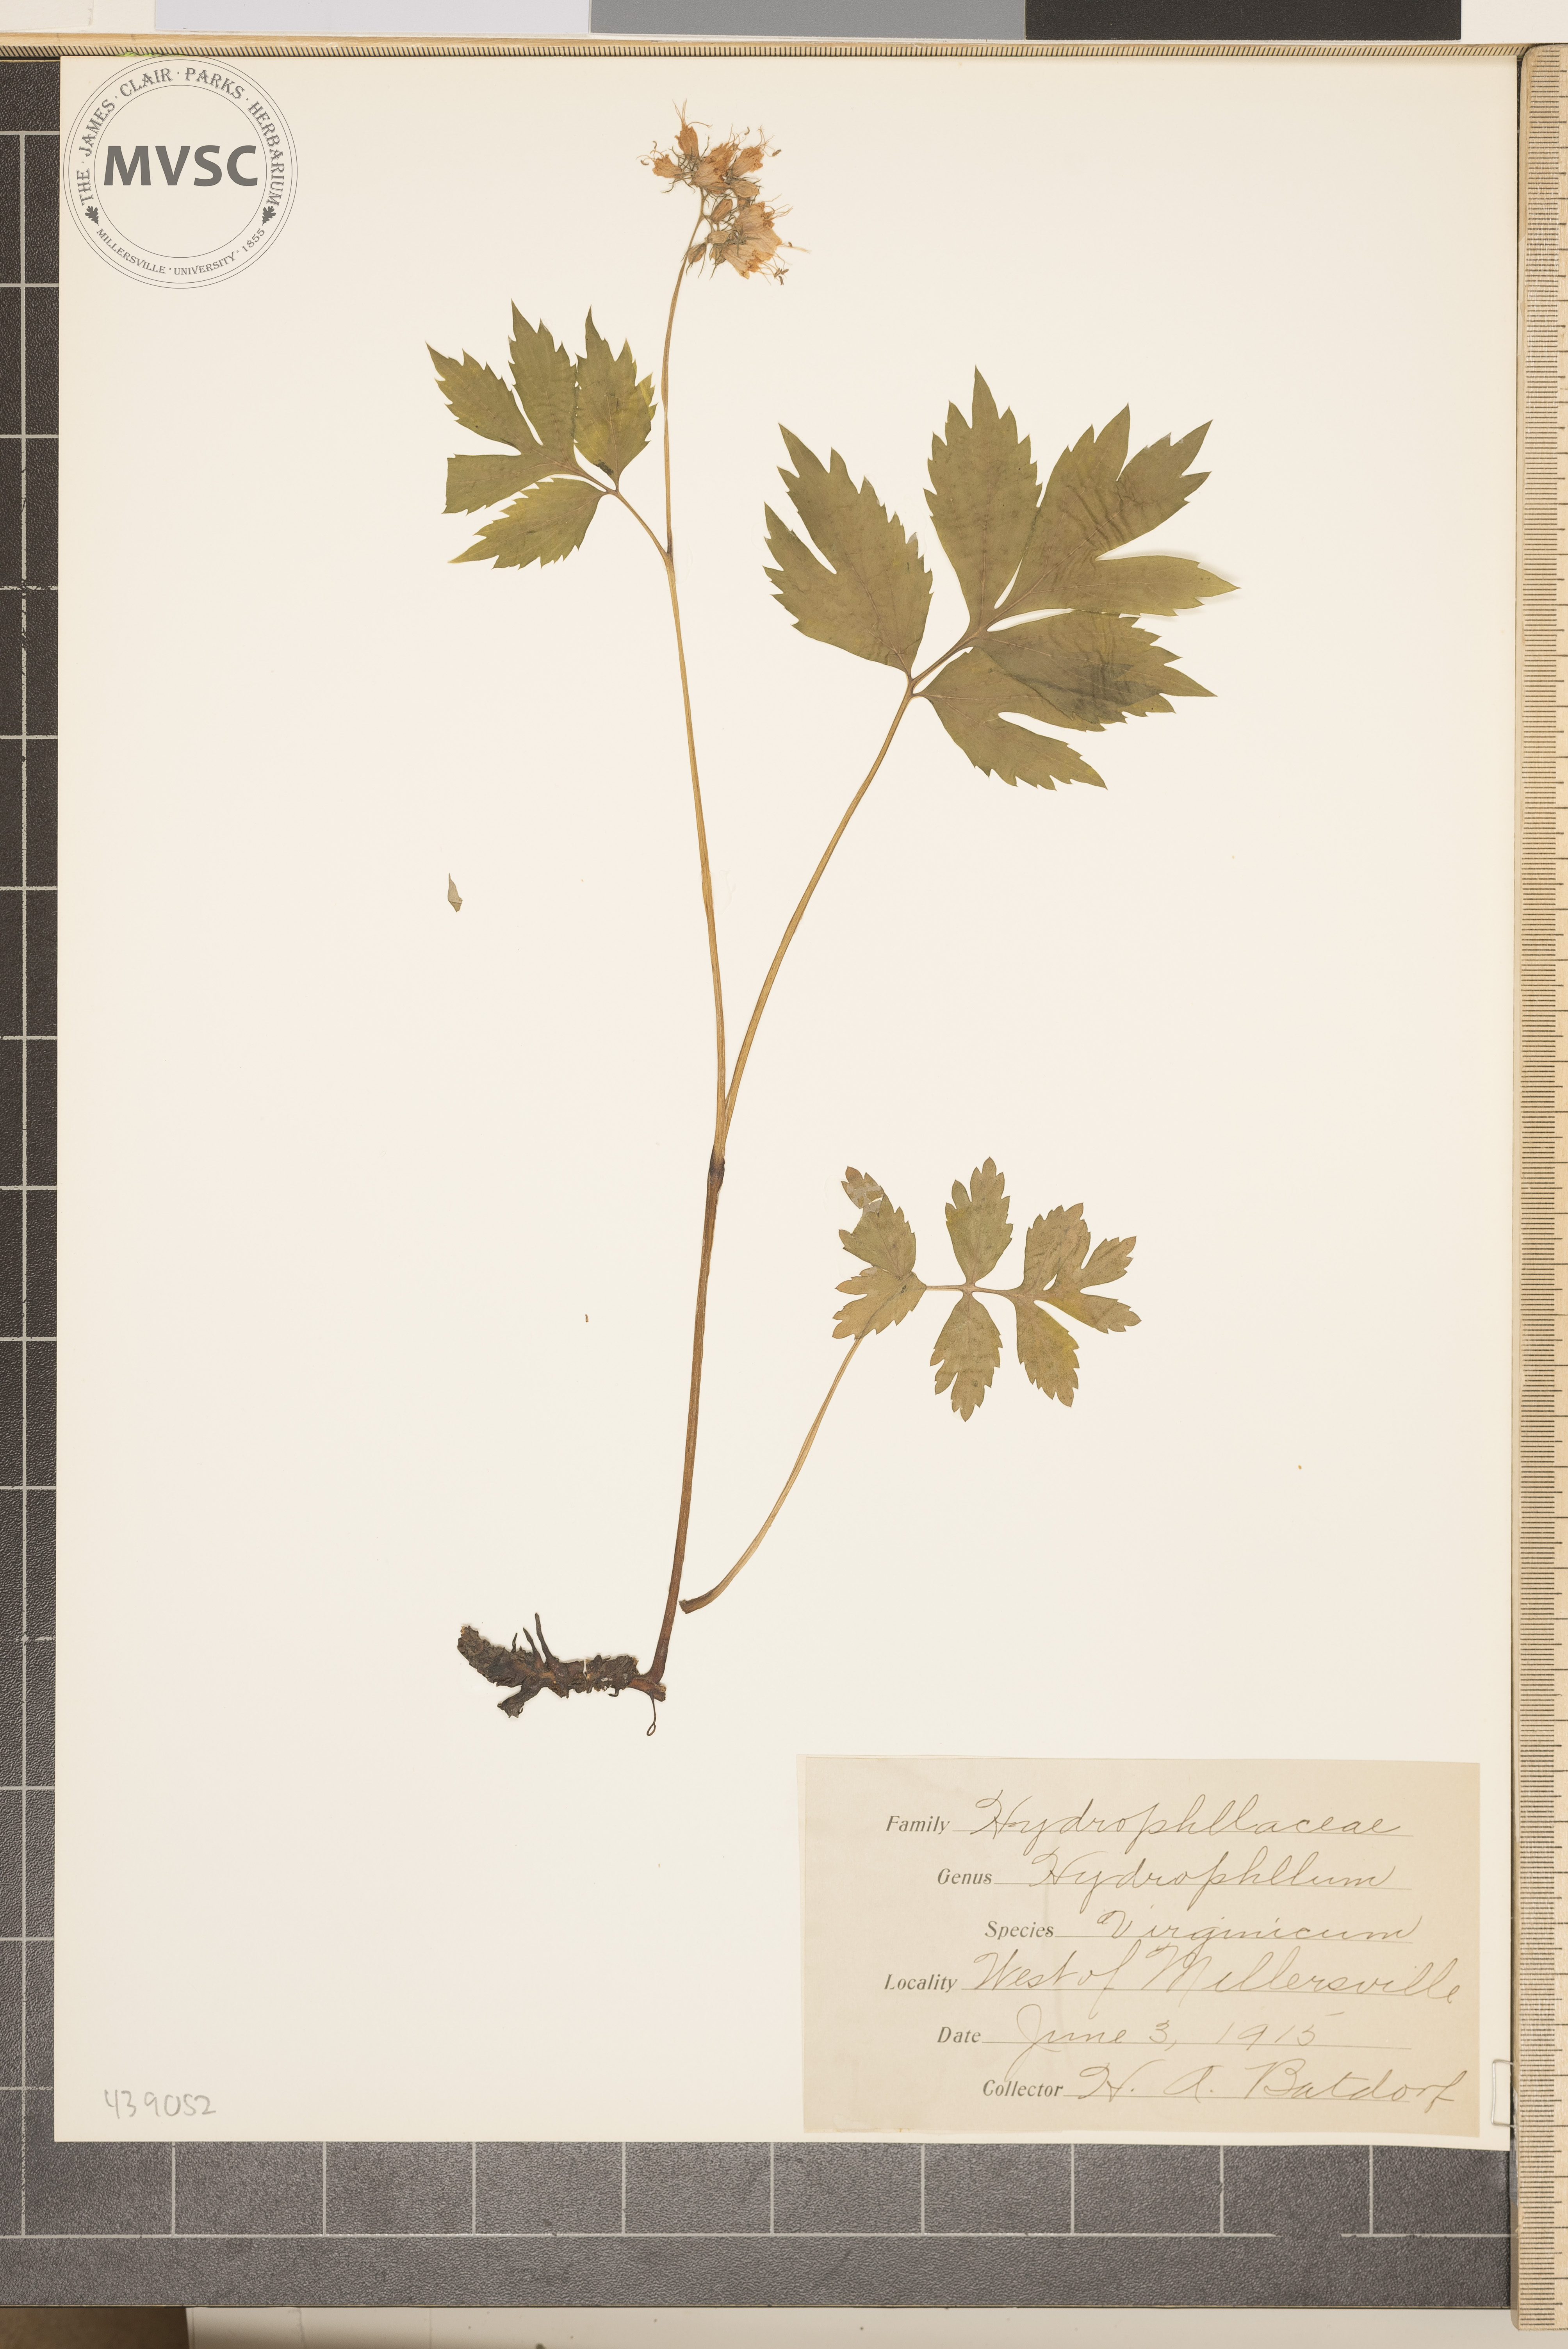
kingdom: Plantae
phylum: Tracheophyta
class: Magnoliopsida
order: Boraginales
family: Hydrophyllaceae
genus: Hydrophyllum
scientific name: Hydrophyllum virginianum
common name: Virginia waterleaf
